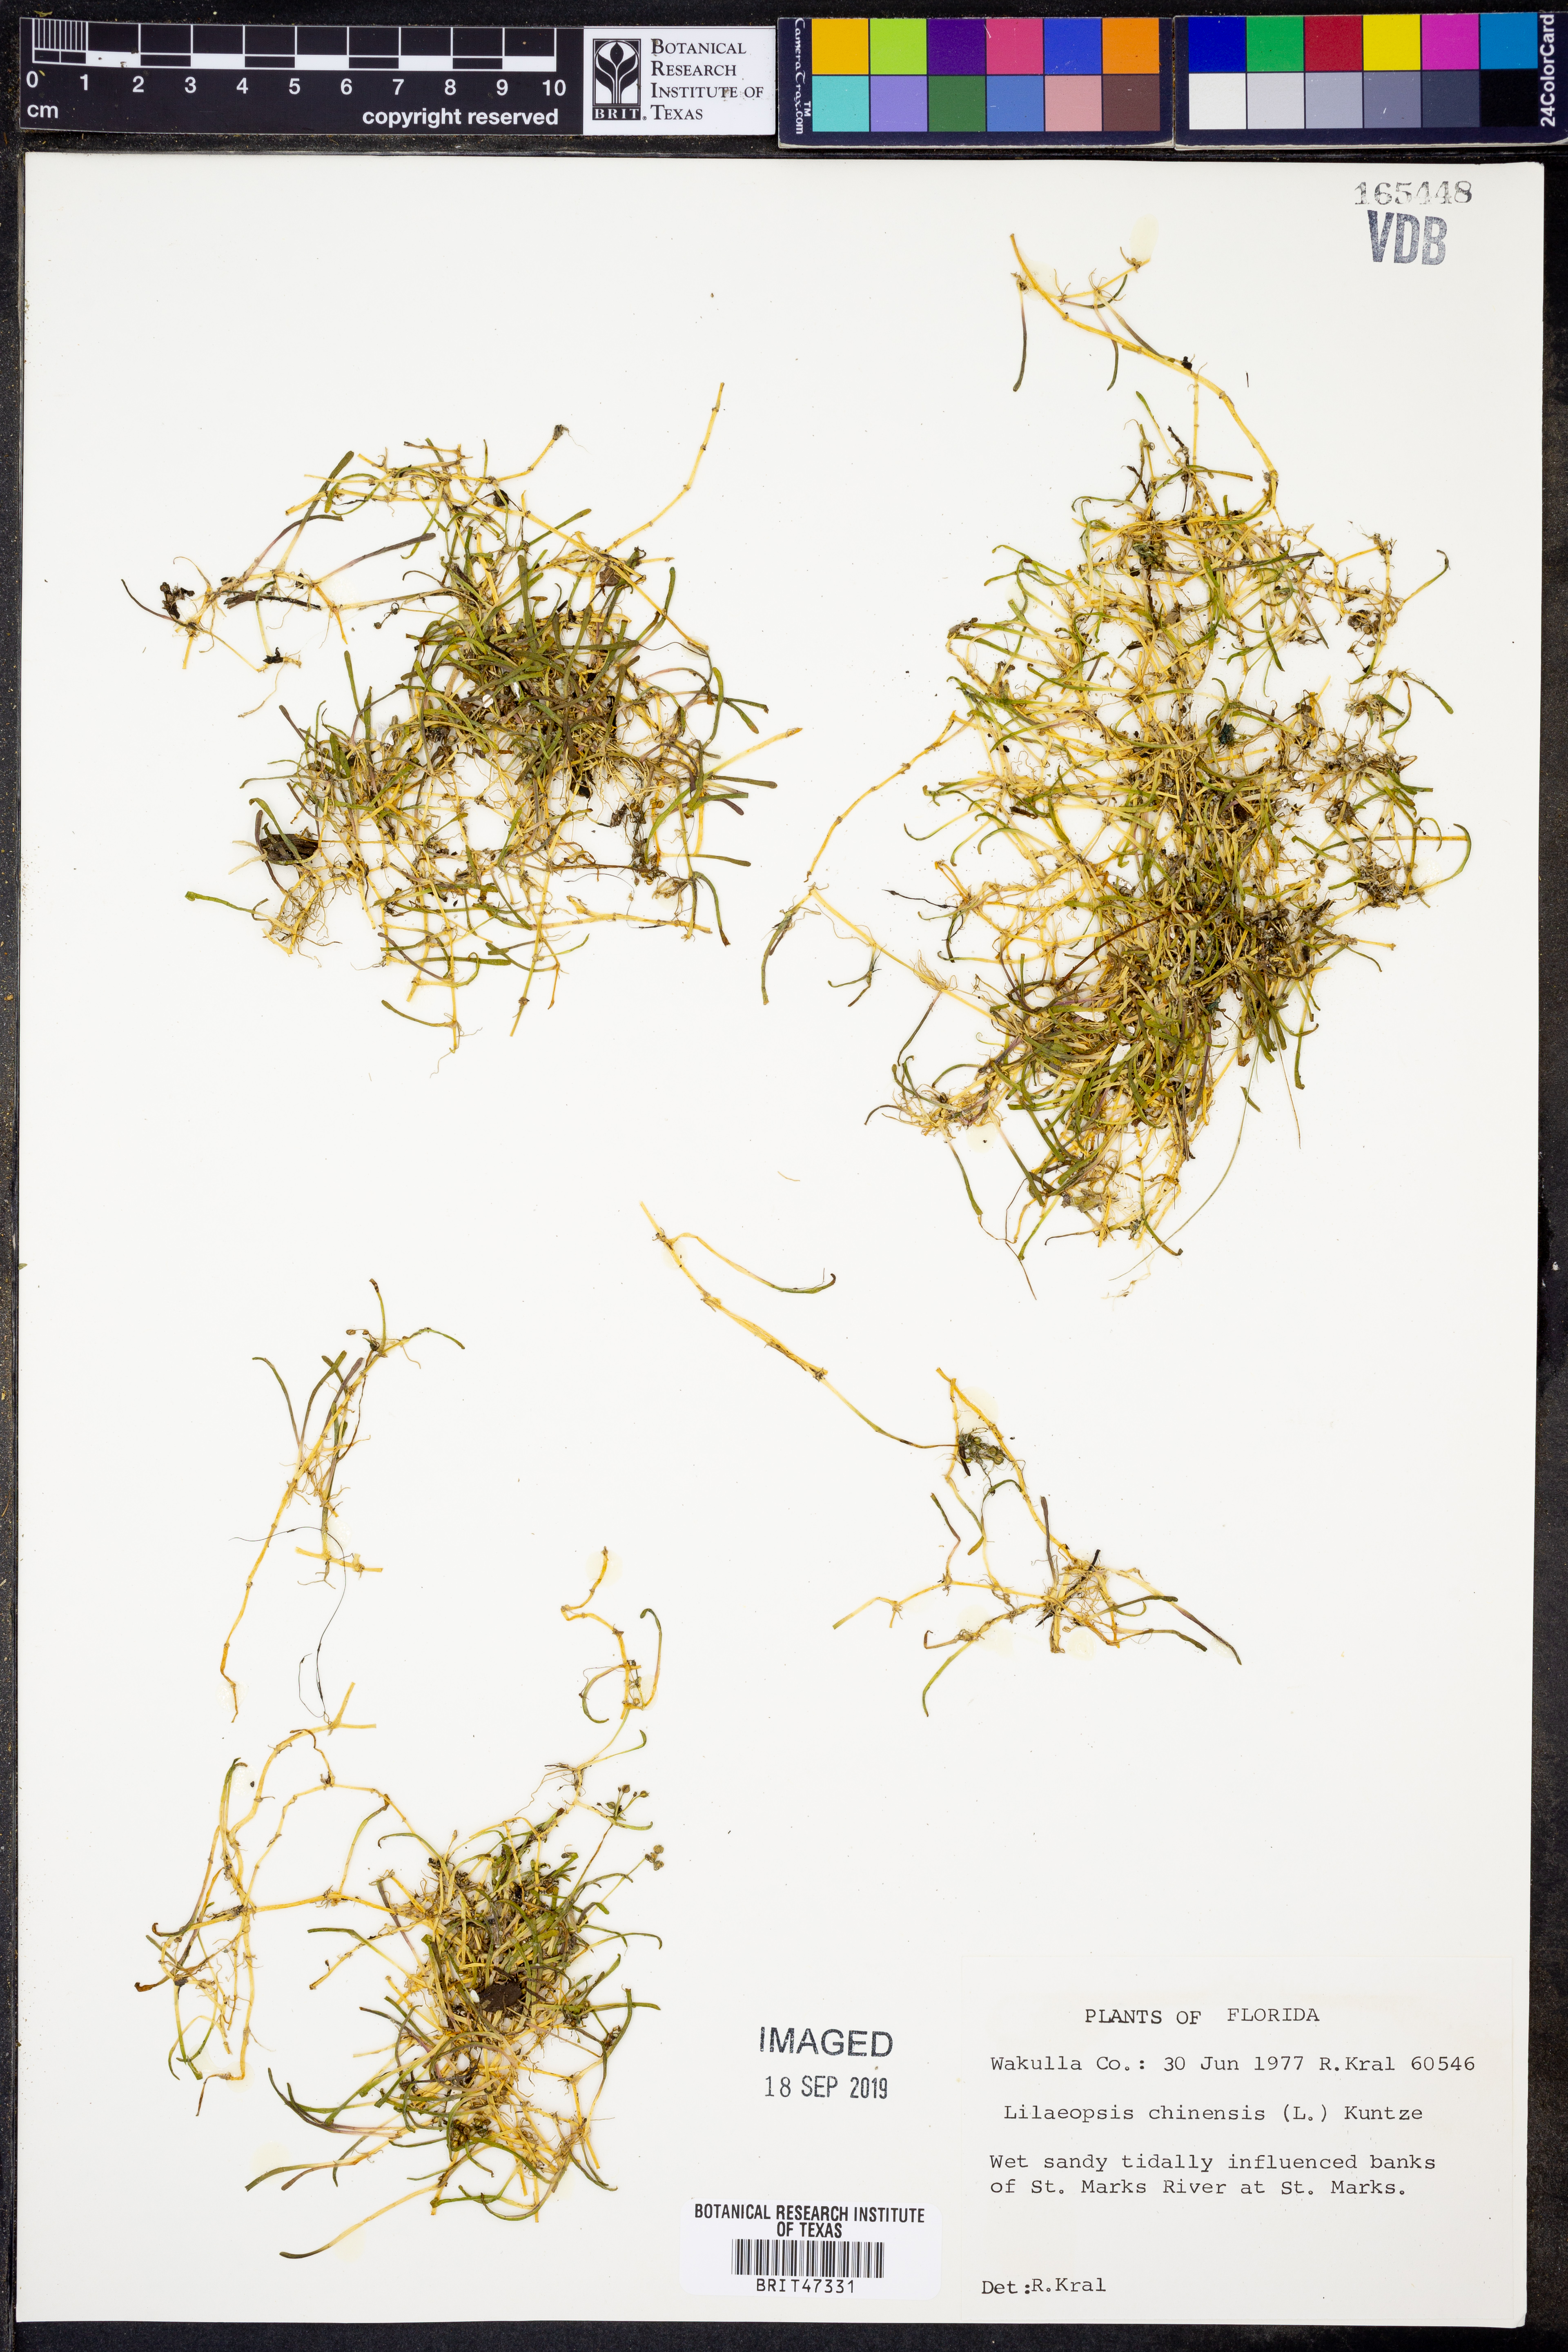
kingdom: Plantae
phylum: Tracheophyta
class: Magnoliopsida
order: Apiales
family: Apiaceae
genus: Lilaeopsis
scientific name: Lilaeopsis chinensis
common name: Eastern grasswort
